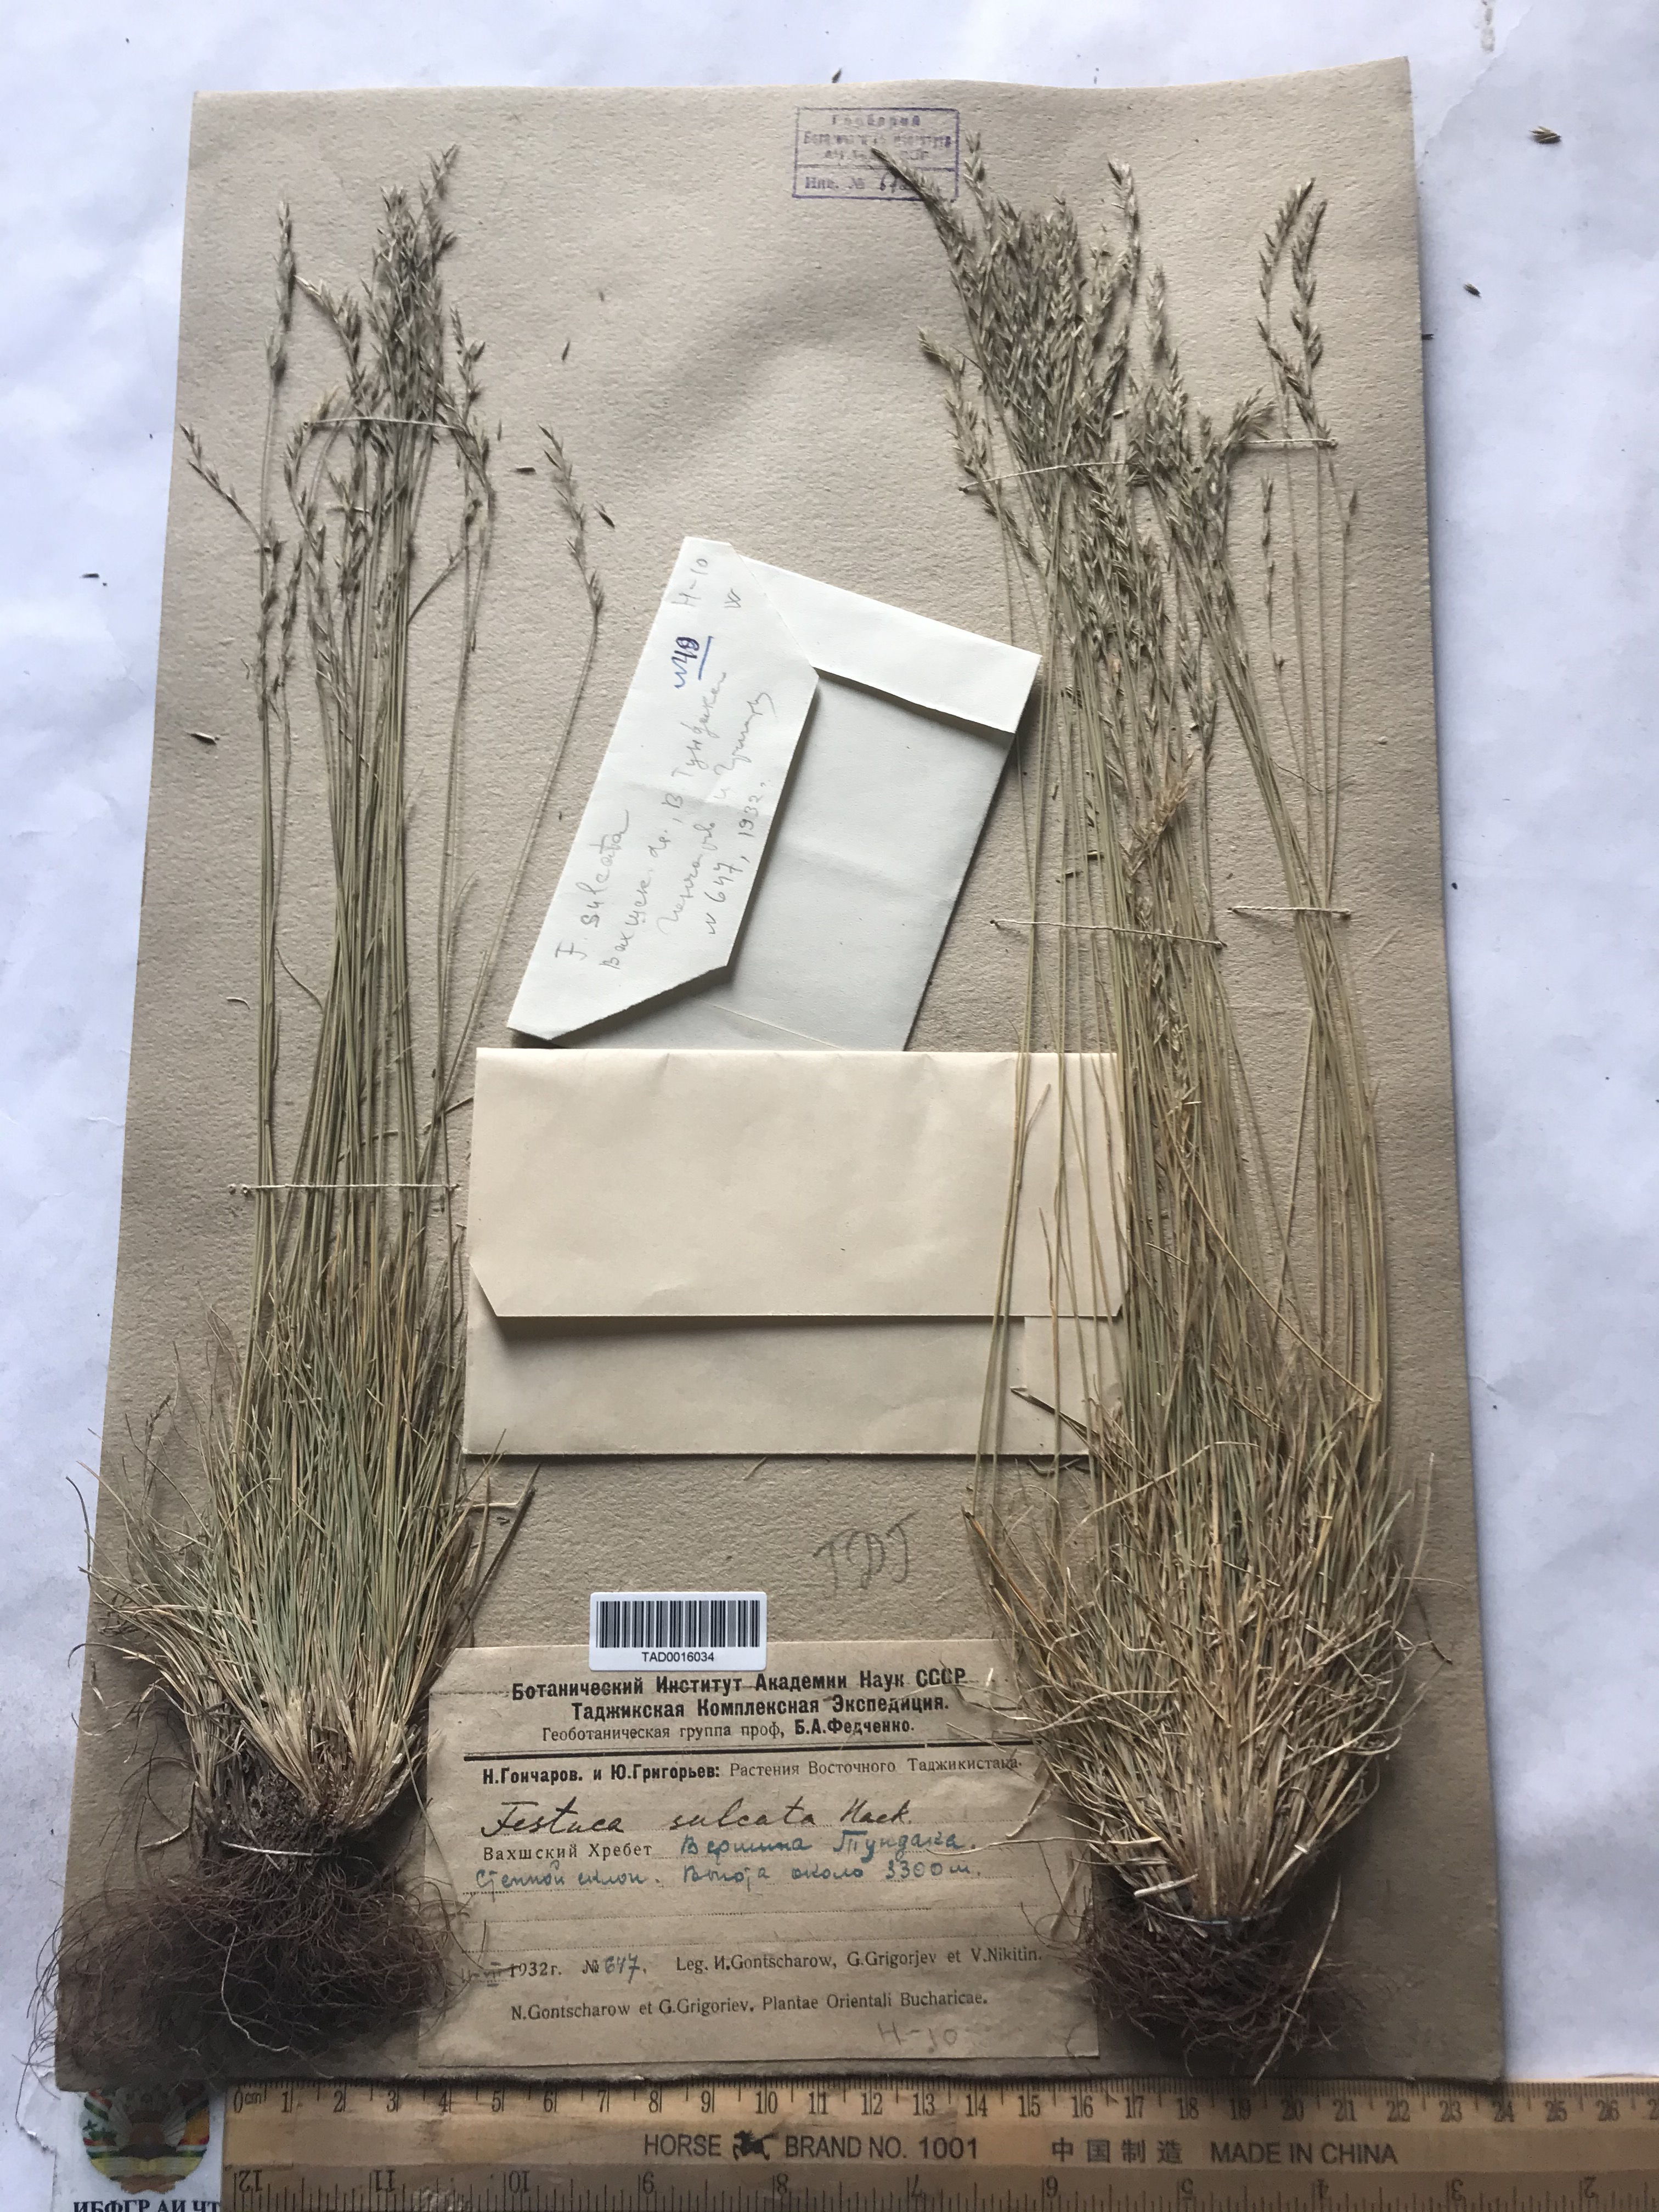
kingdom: Plantae
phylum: Tracheophyta
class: Liliopsida
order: Poales
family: Poaceae
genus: Festuca
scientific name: Festuca sulcata
